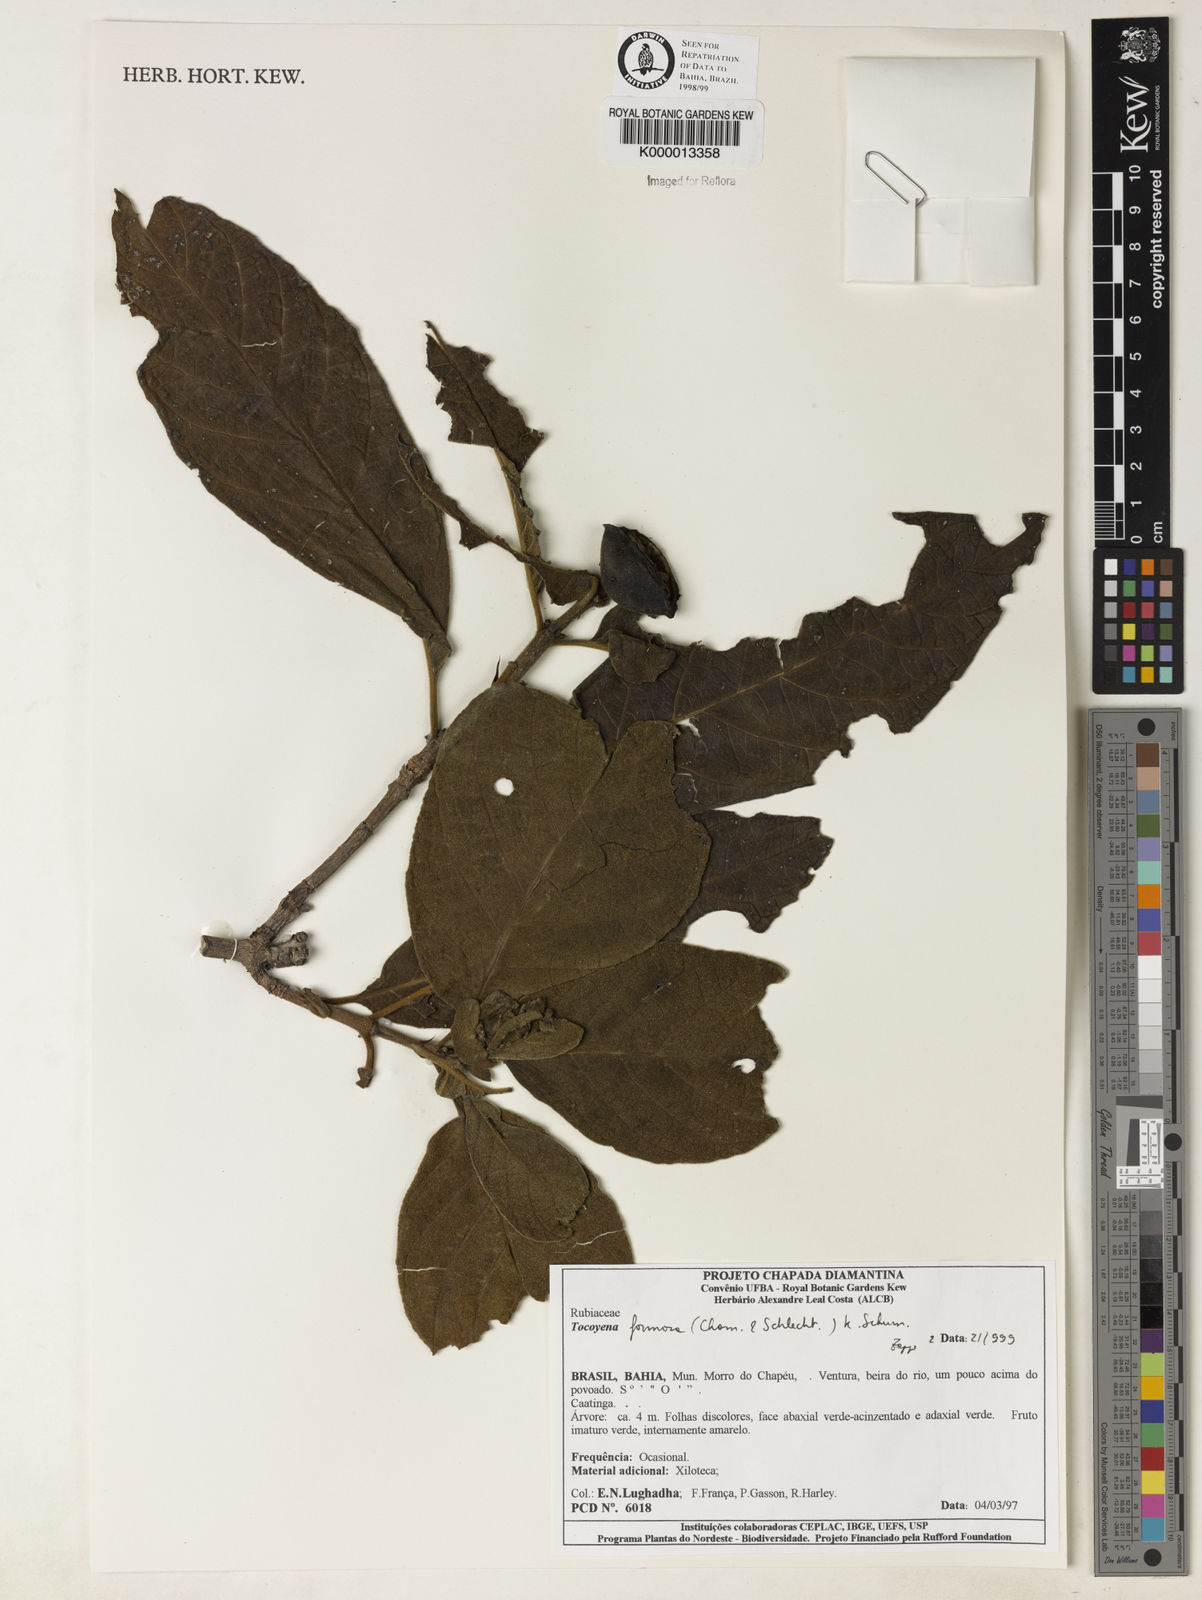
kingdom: Plantae
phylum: Tracheophyta
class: Magnoliopsida
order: Gentianales
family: Rubiaceae
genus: Tocoyena
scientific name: Tocoyena formosa
